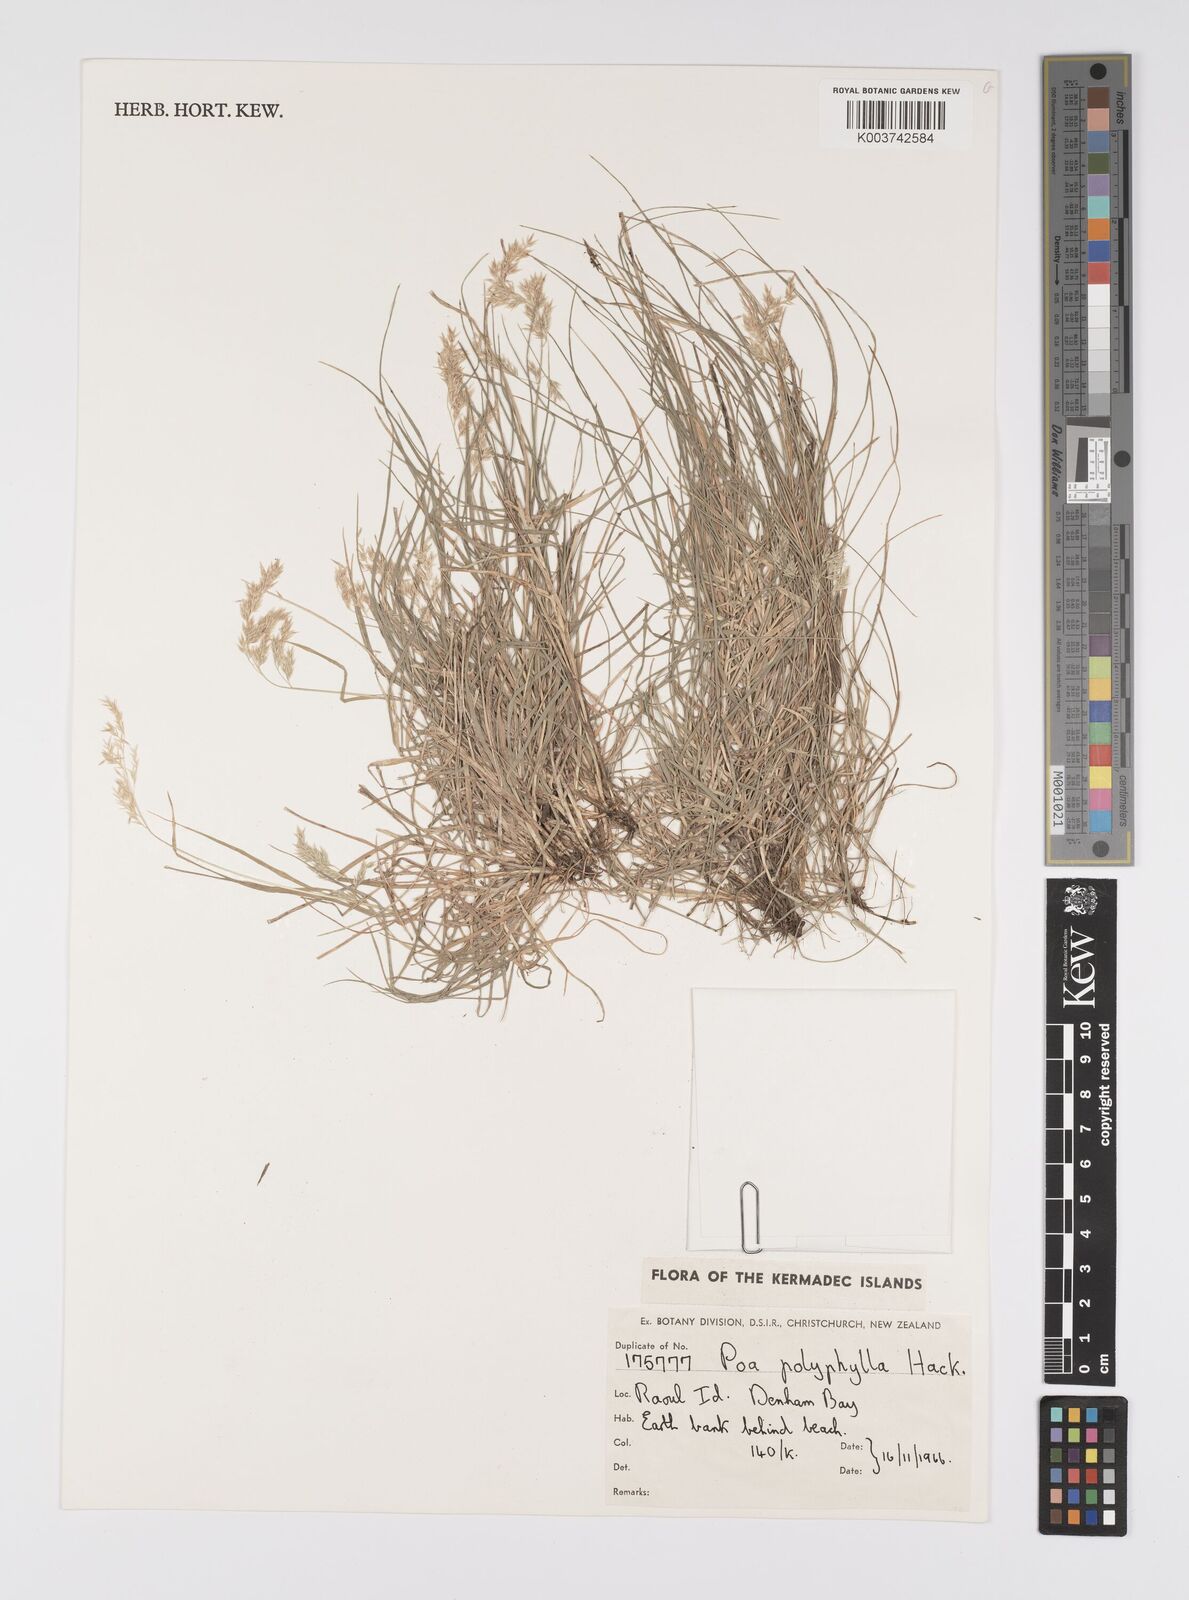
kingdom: Plantae
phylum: Tracheophyta
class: Liliopsida
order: Poales
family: Poaceae
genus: Poa
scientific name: Poa anceps
